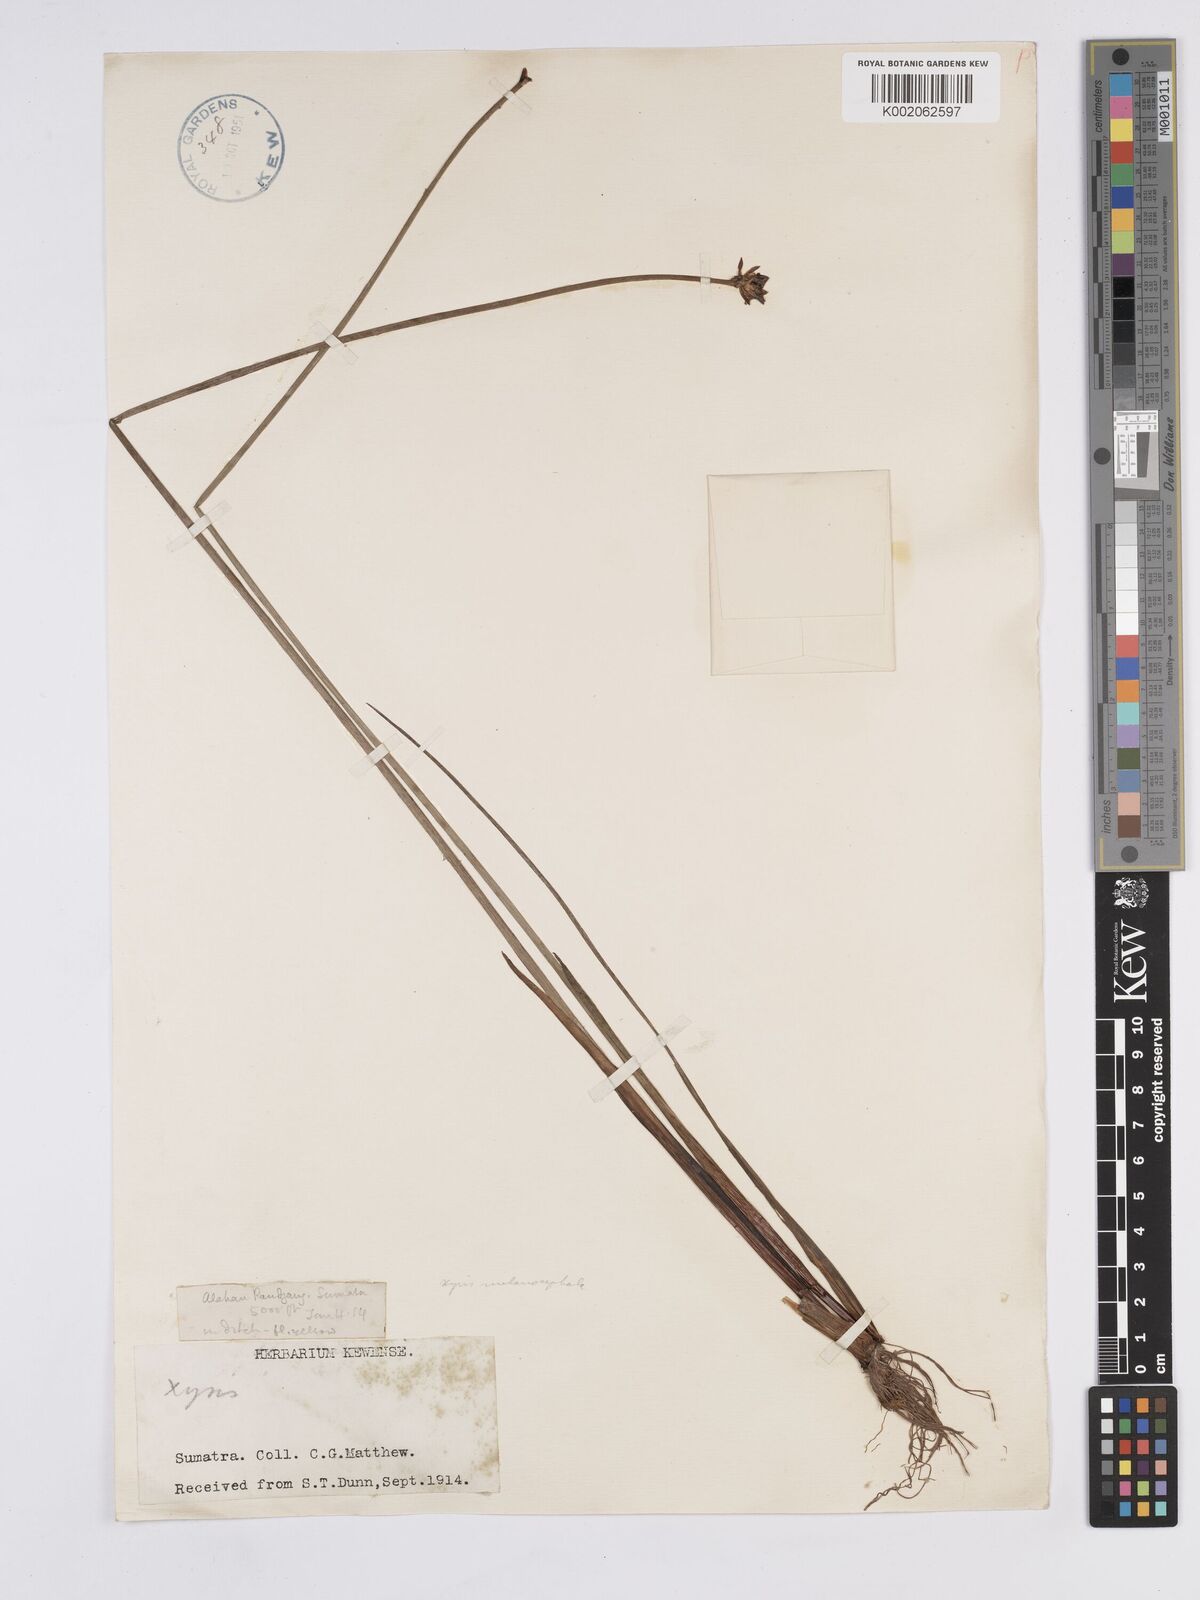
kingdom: Plantae
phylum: Tracheophyta
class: Liliopsida
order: Poales
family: Xyridaceae
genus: Xyris
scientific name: Xyris capensis
